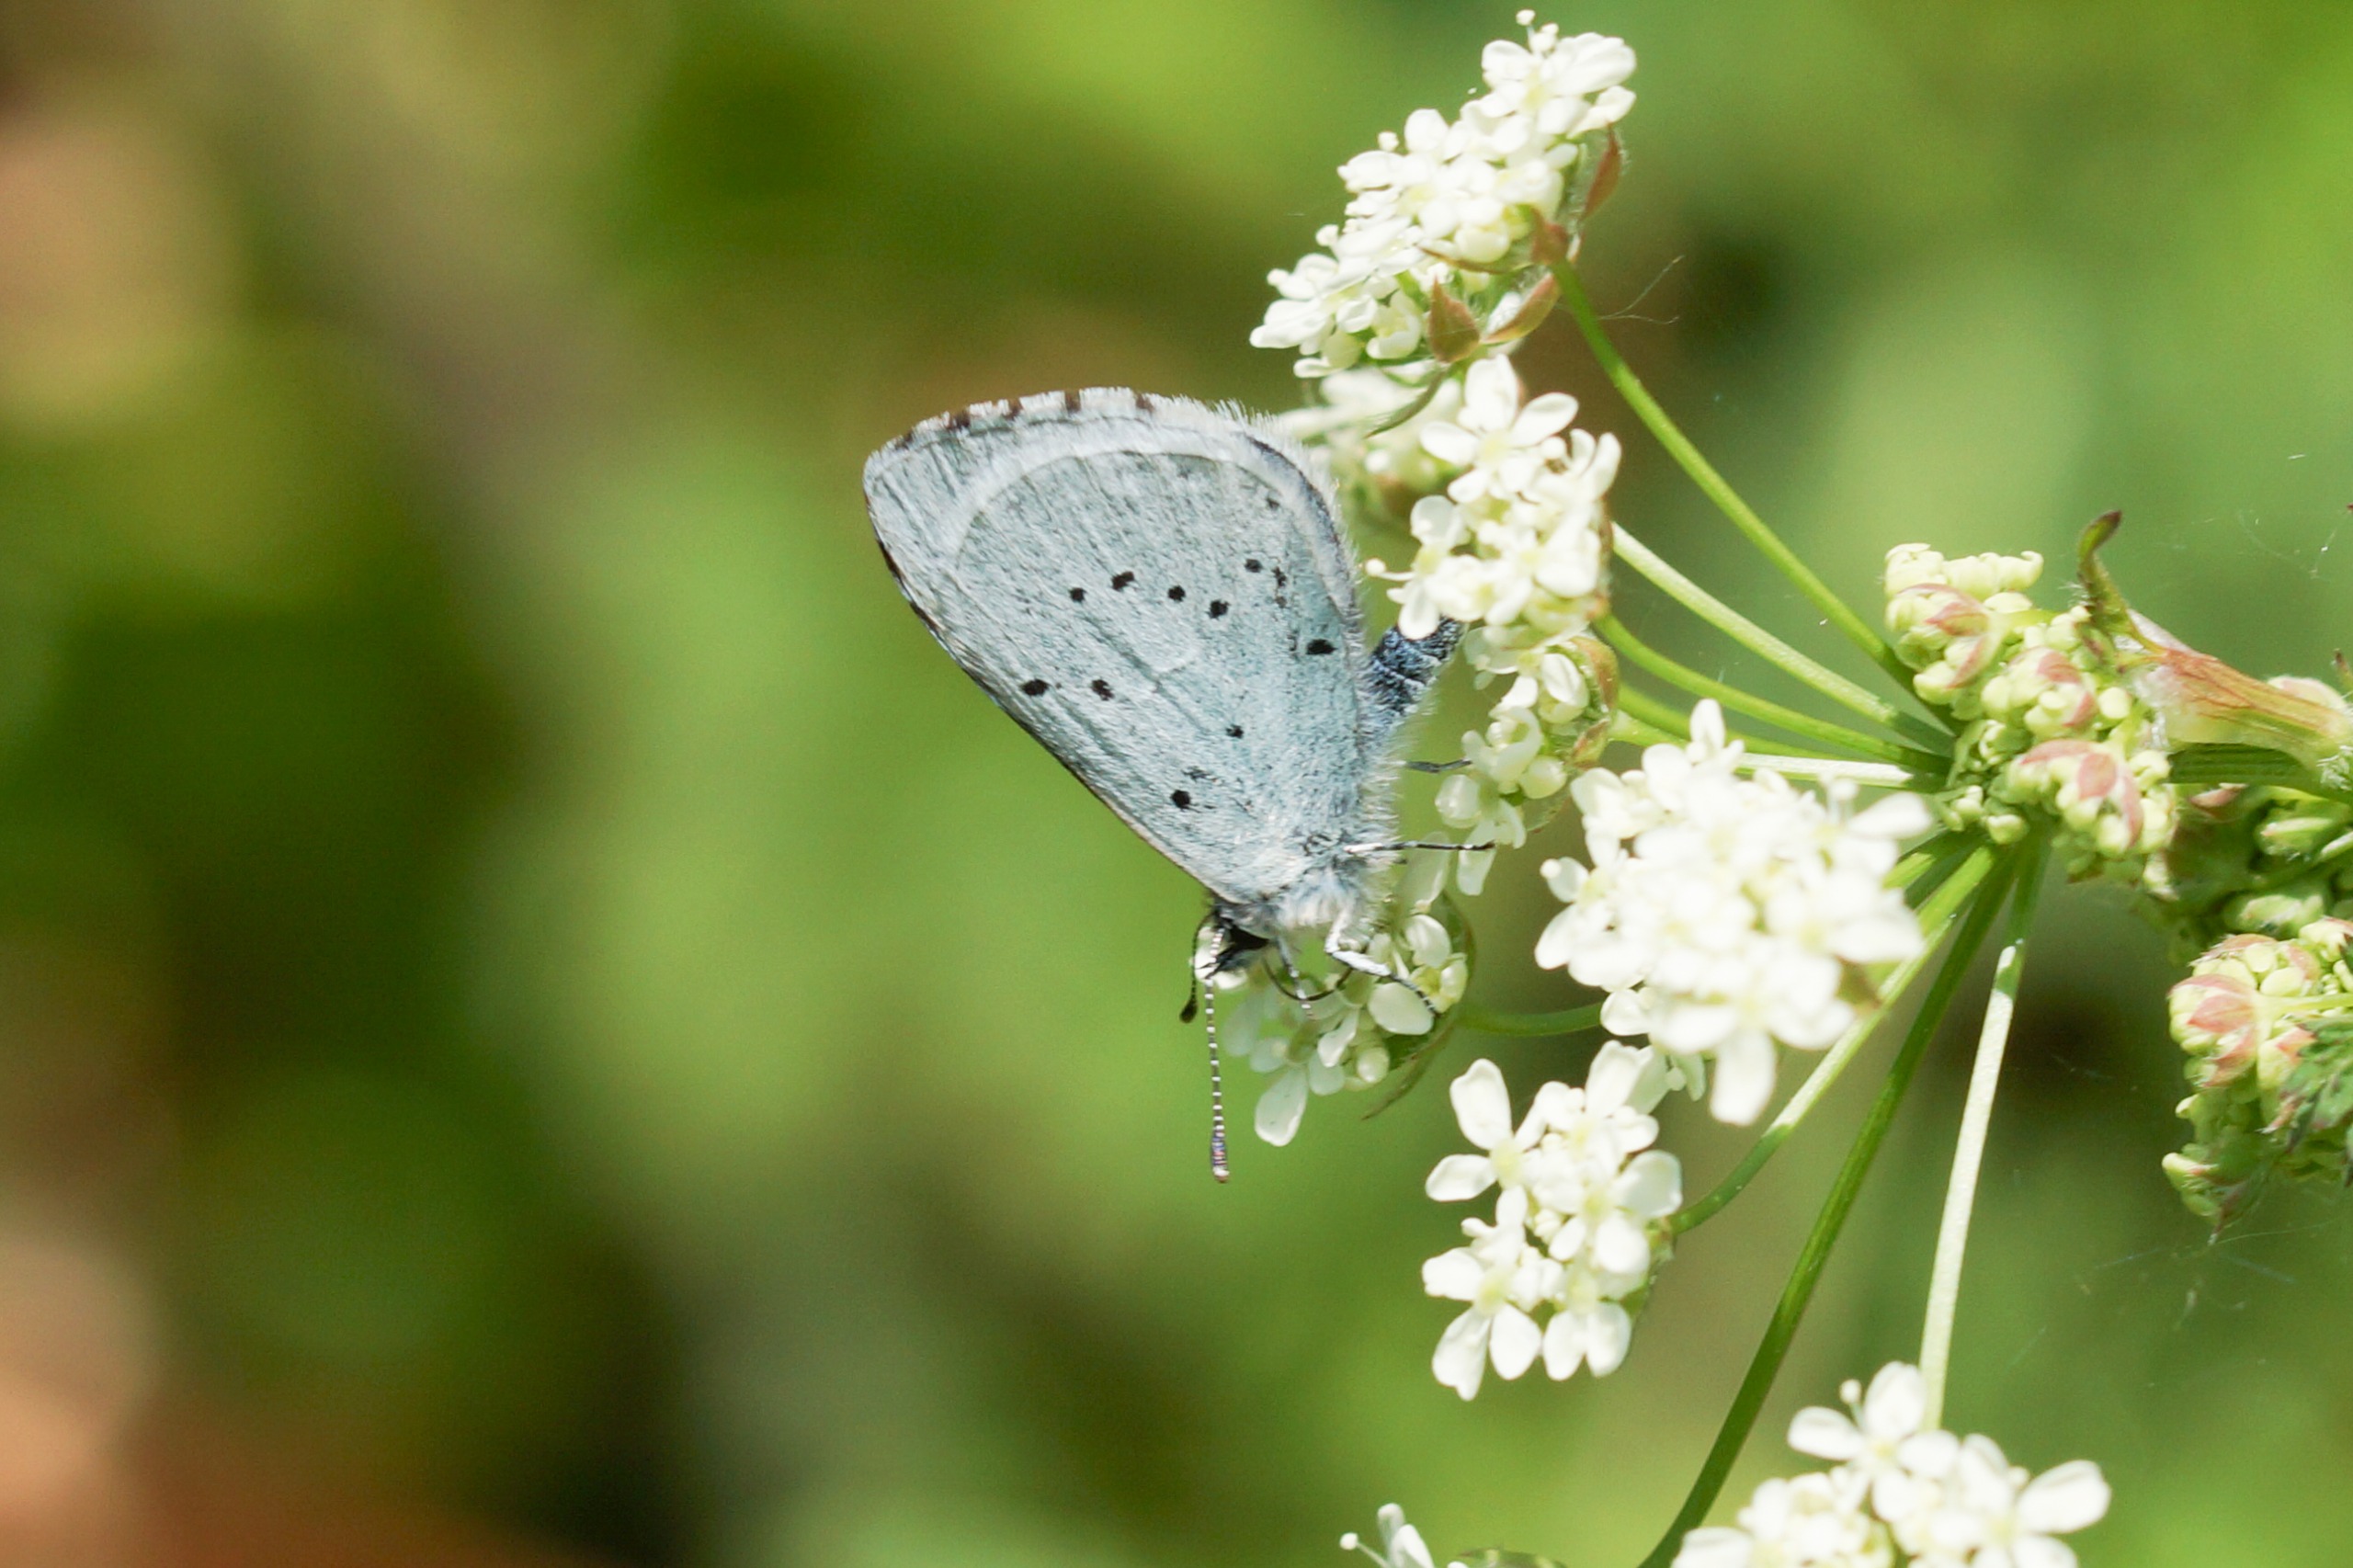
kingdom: Animalia
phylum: Arthropoda
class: Insecta
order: Lepidoptera
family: Lycaenidae
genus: Celastrina
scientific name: Celastrina argiolus
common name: Skovblåfugl
